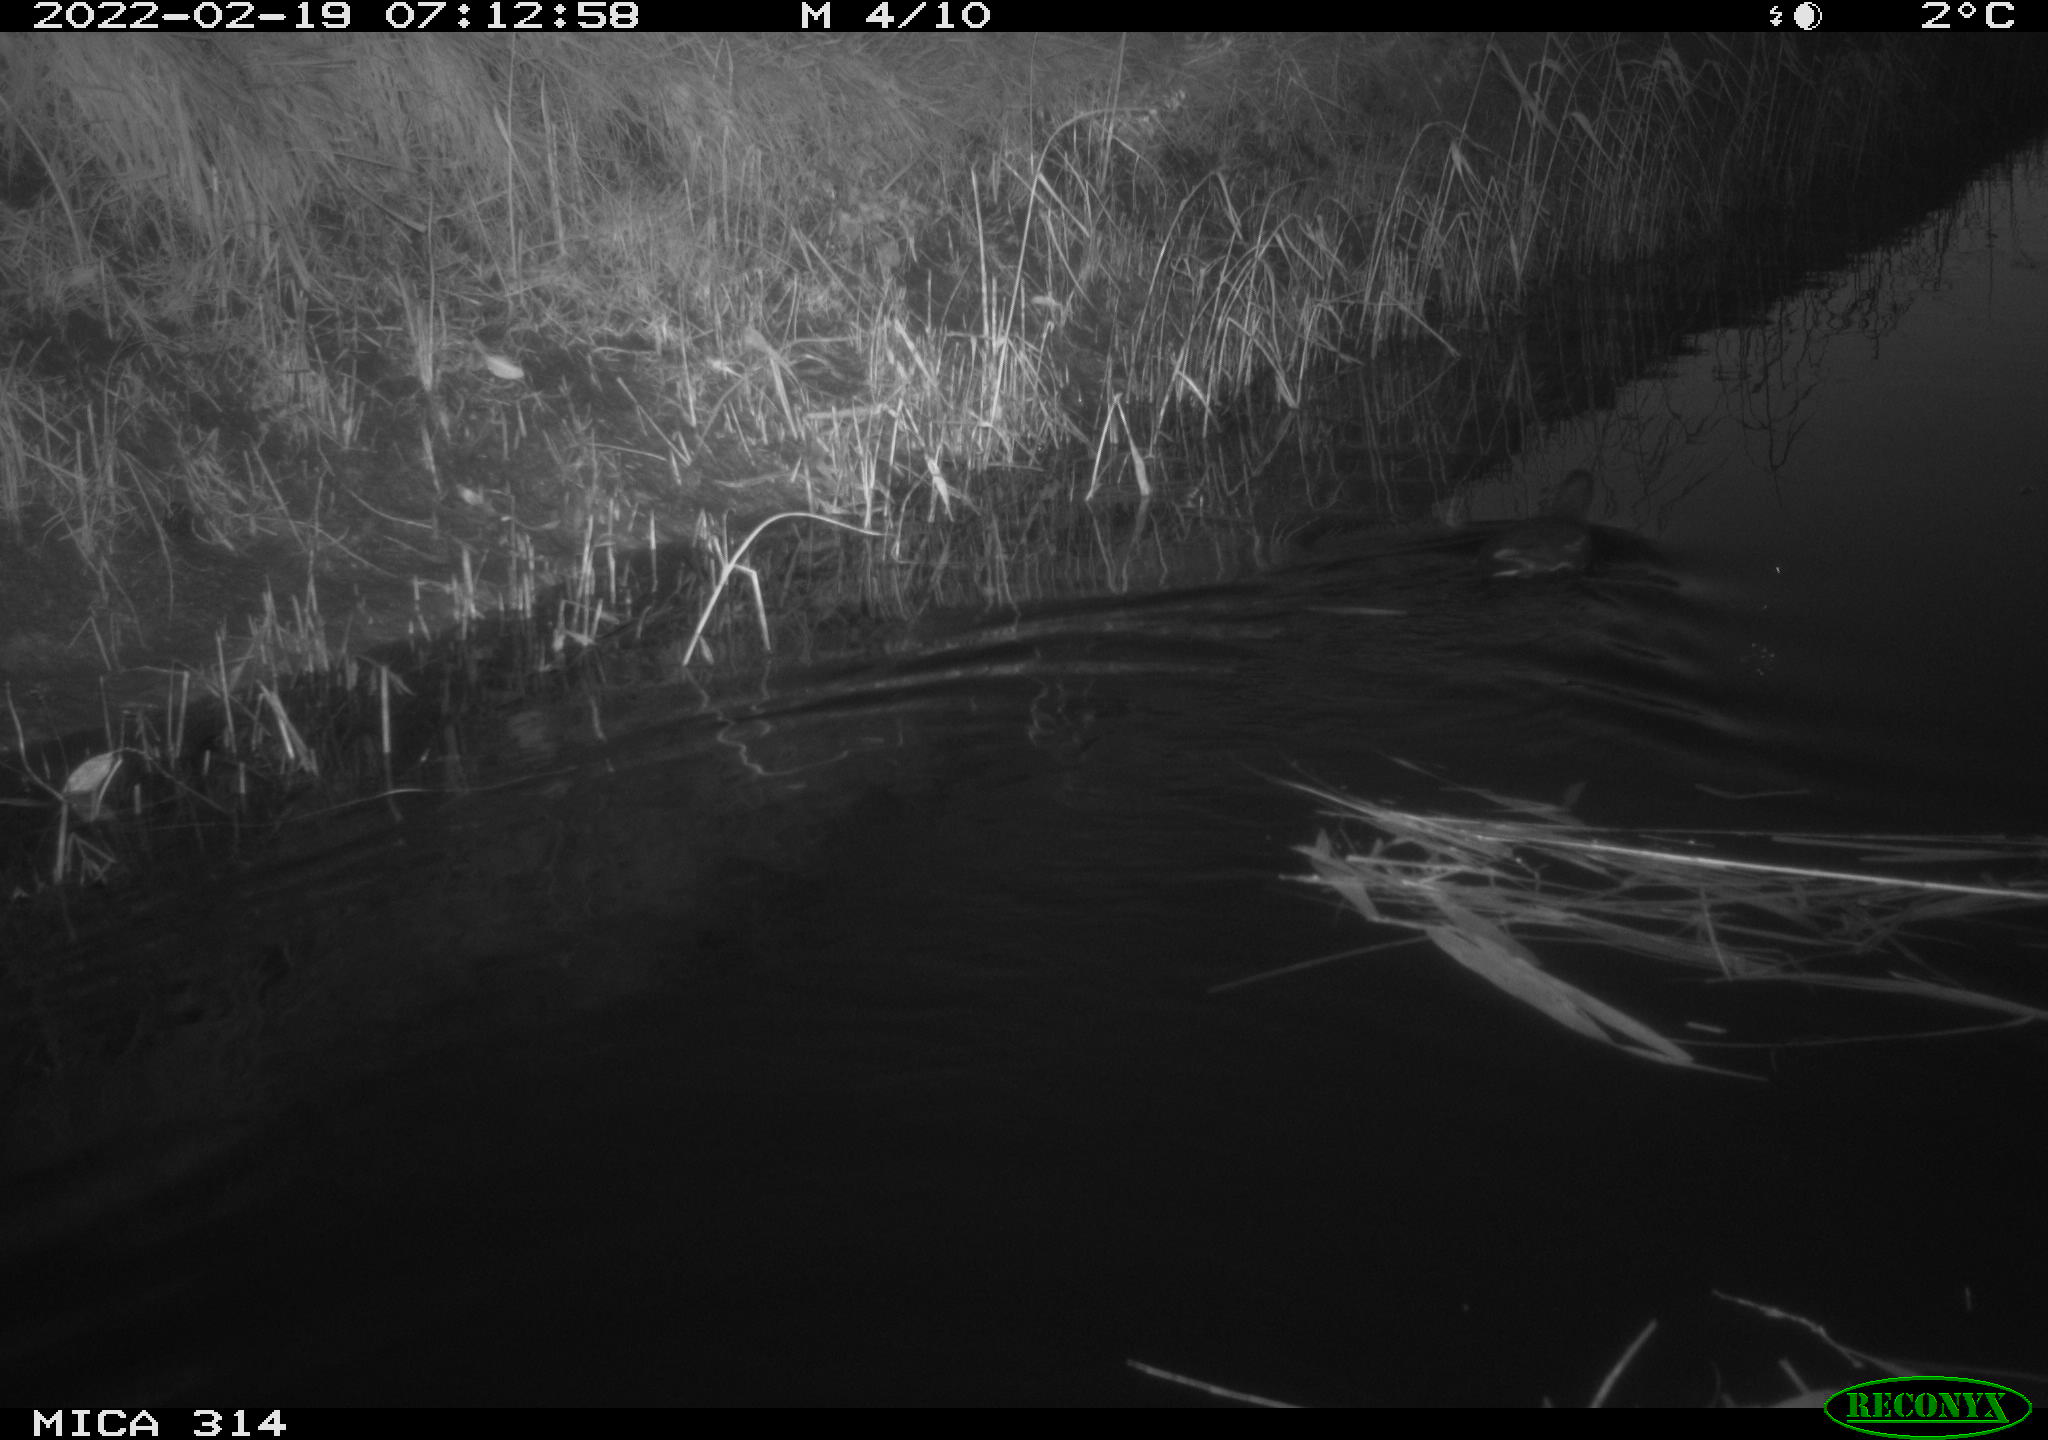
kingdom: Animalia
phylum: Chordata
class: Aves
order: Gruiformes
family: Rallidae
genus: Gallinula
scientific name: Gallinula chloropus
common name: Common moorhen
